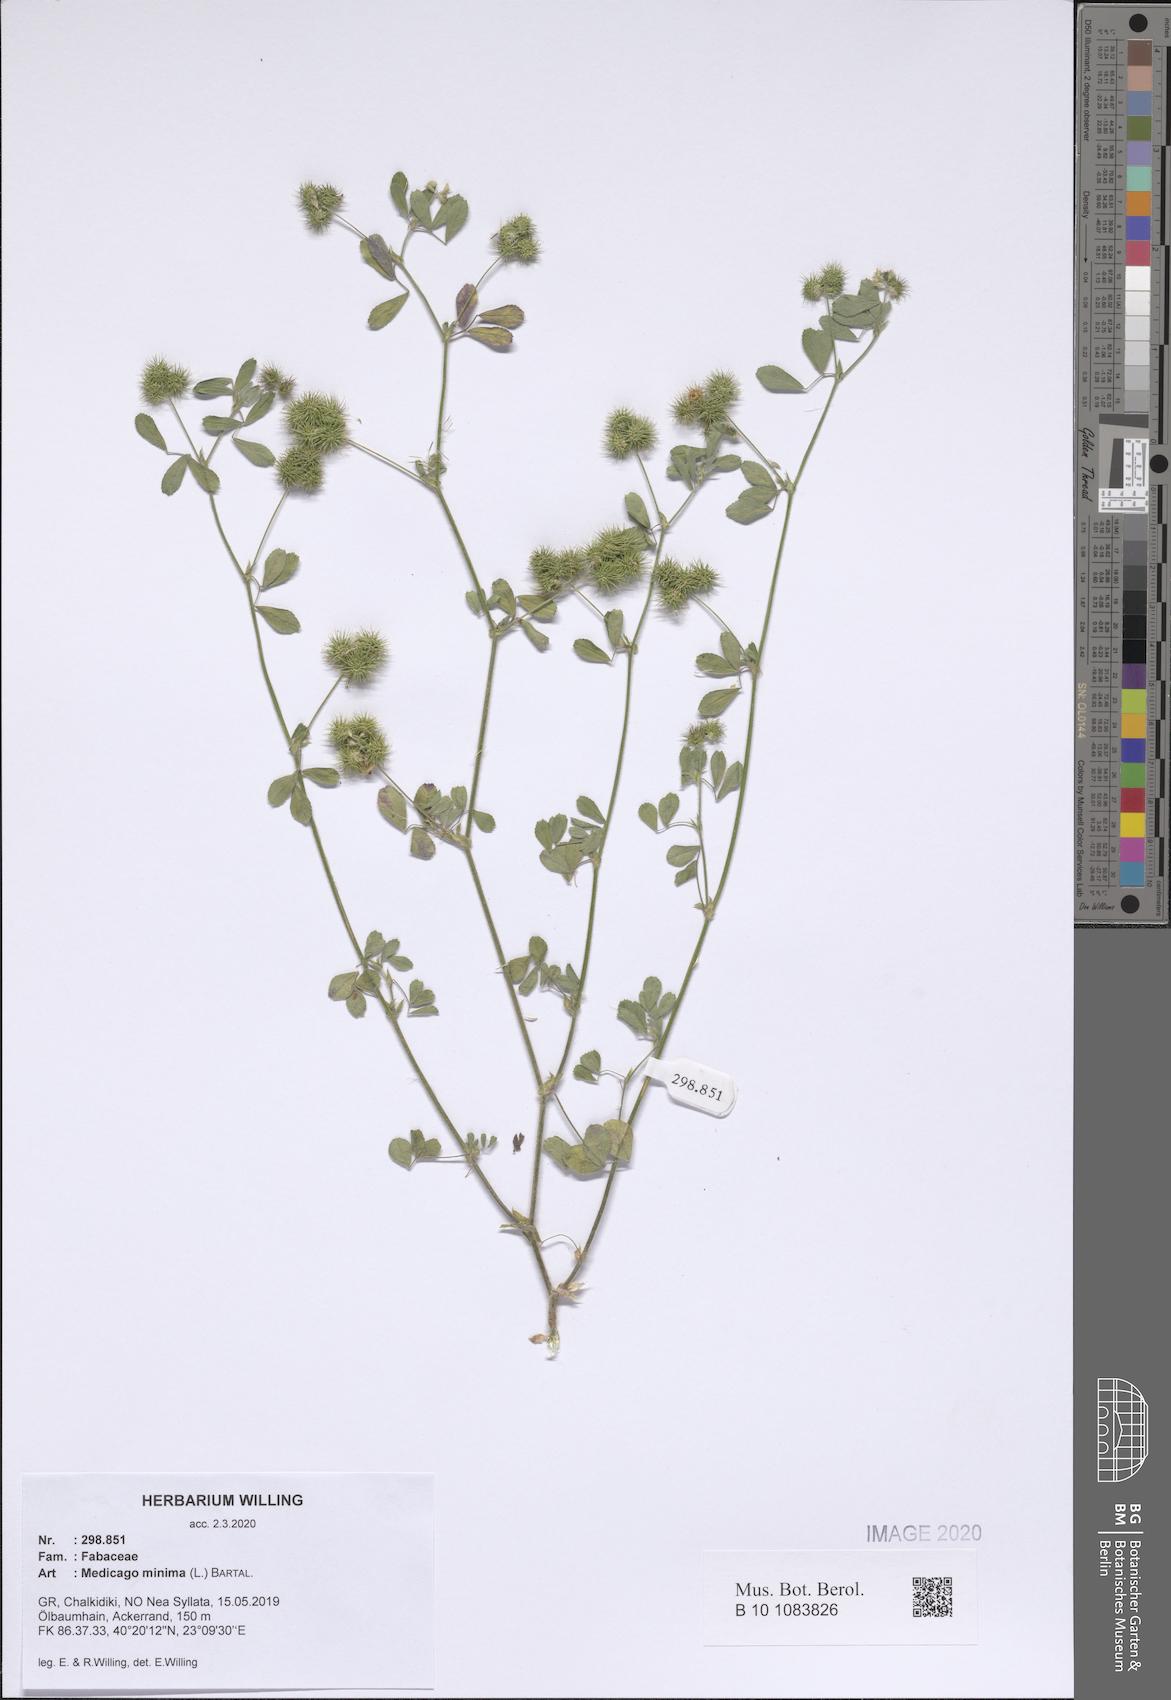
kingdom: Plantae
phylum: Tracheophyta
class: Magnoliopsida
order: Fabales
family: Fabaceae
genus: Medicago
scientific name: Medicago minima
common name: Little bur-clover
